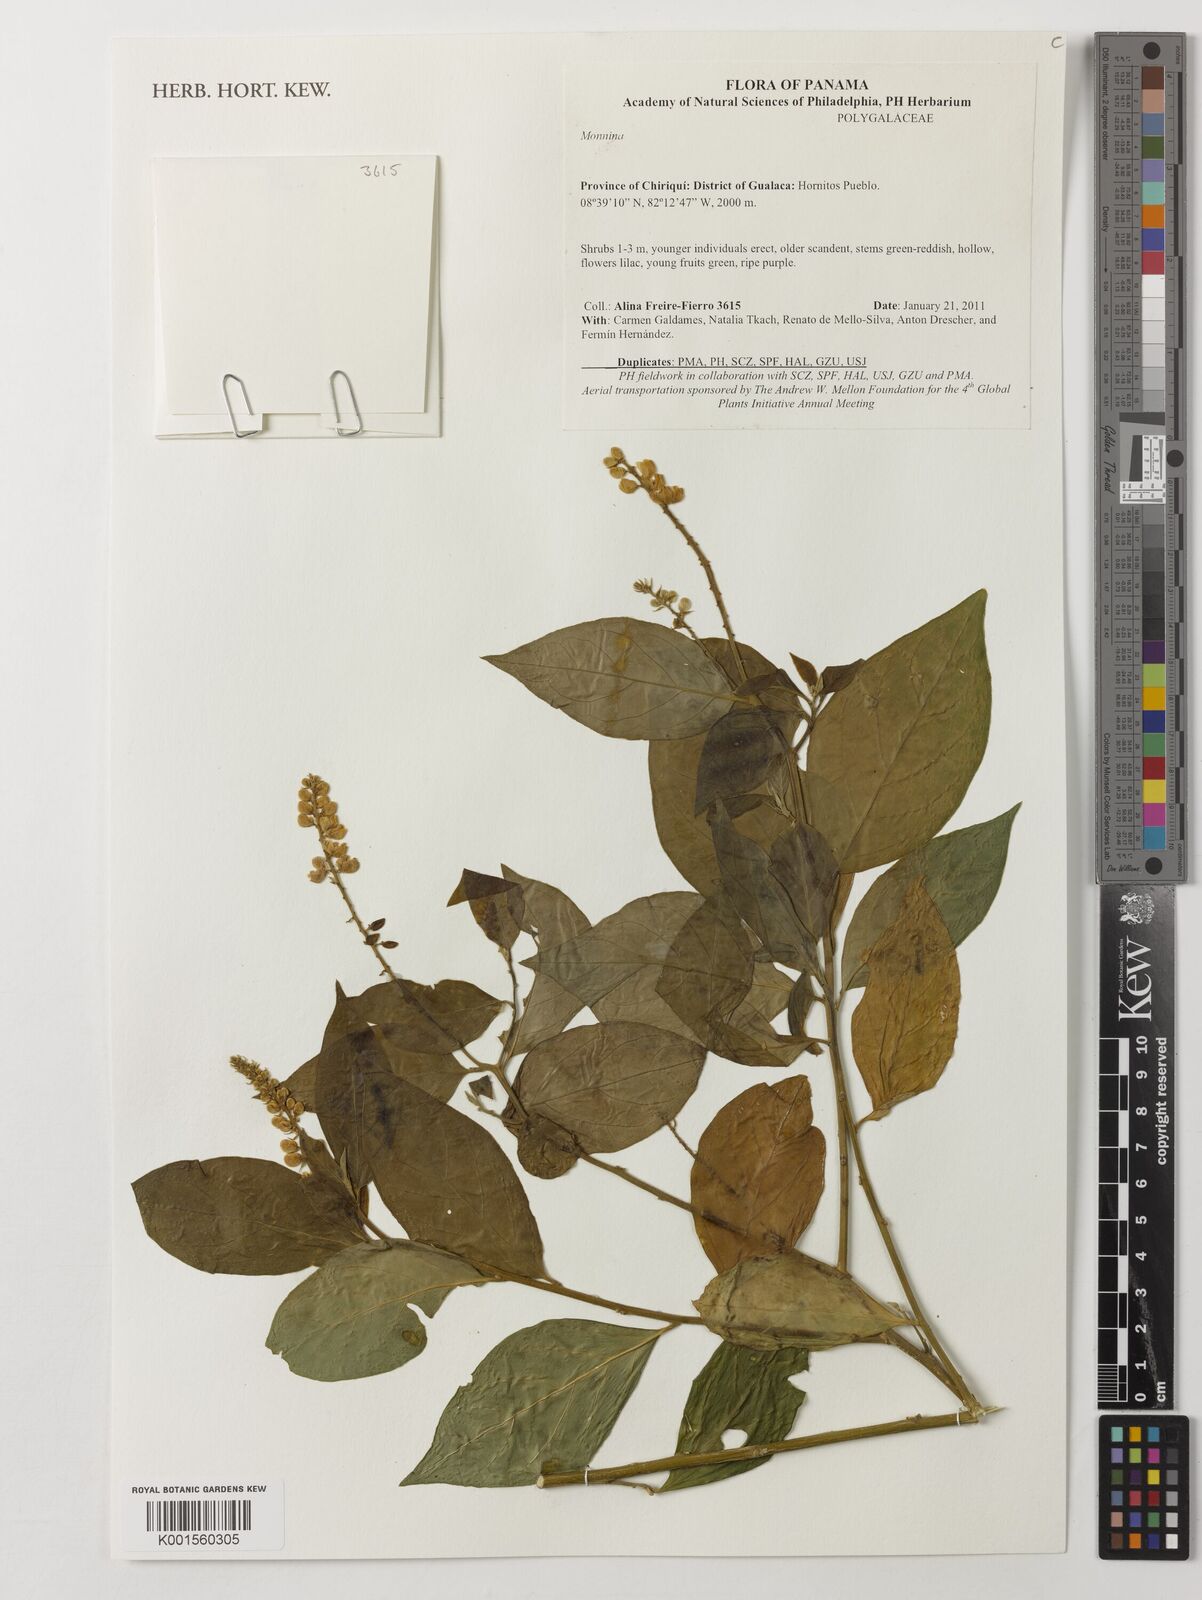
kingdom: Plantae
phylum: Tracheophyta
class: Magnoliopsida
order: Fabales
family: Polygalaceae
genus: Monnina
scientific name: Monnina
